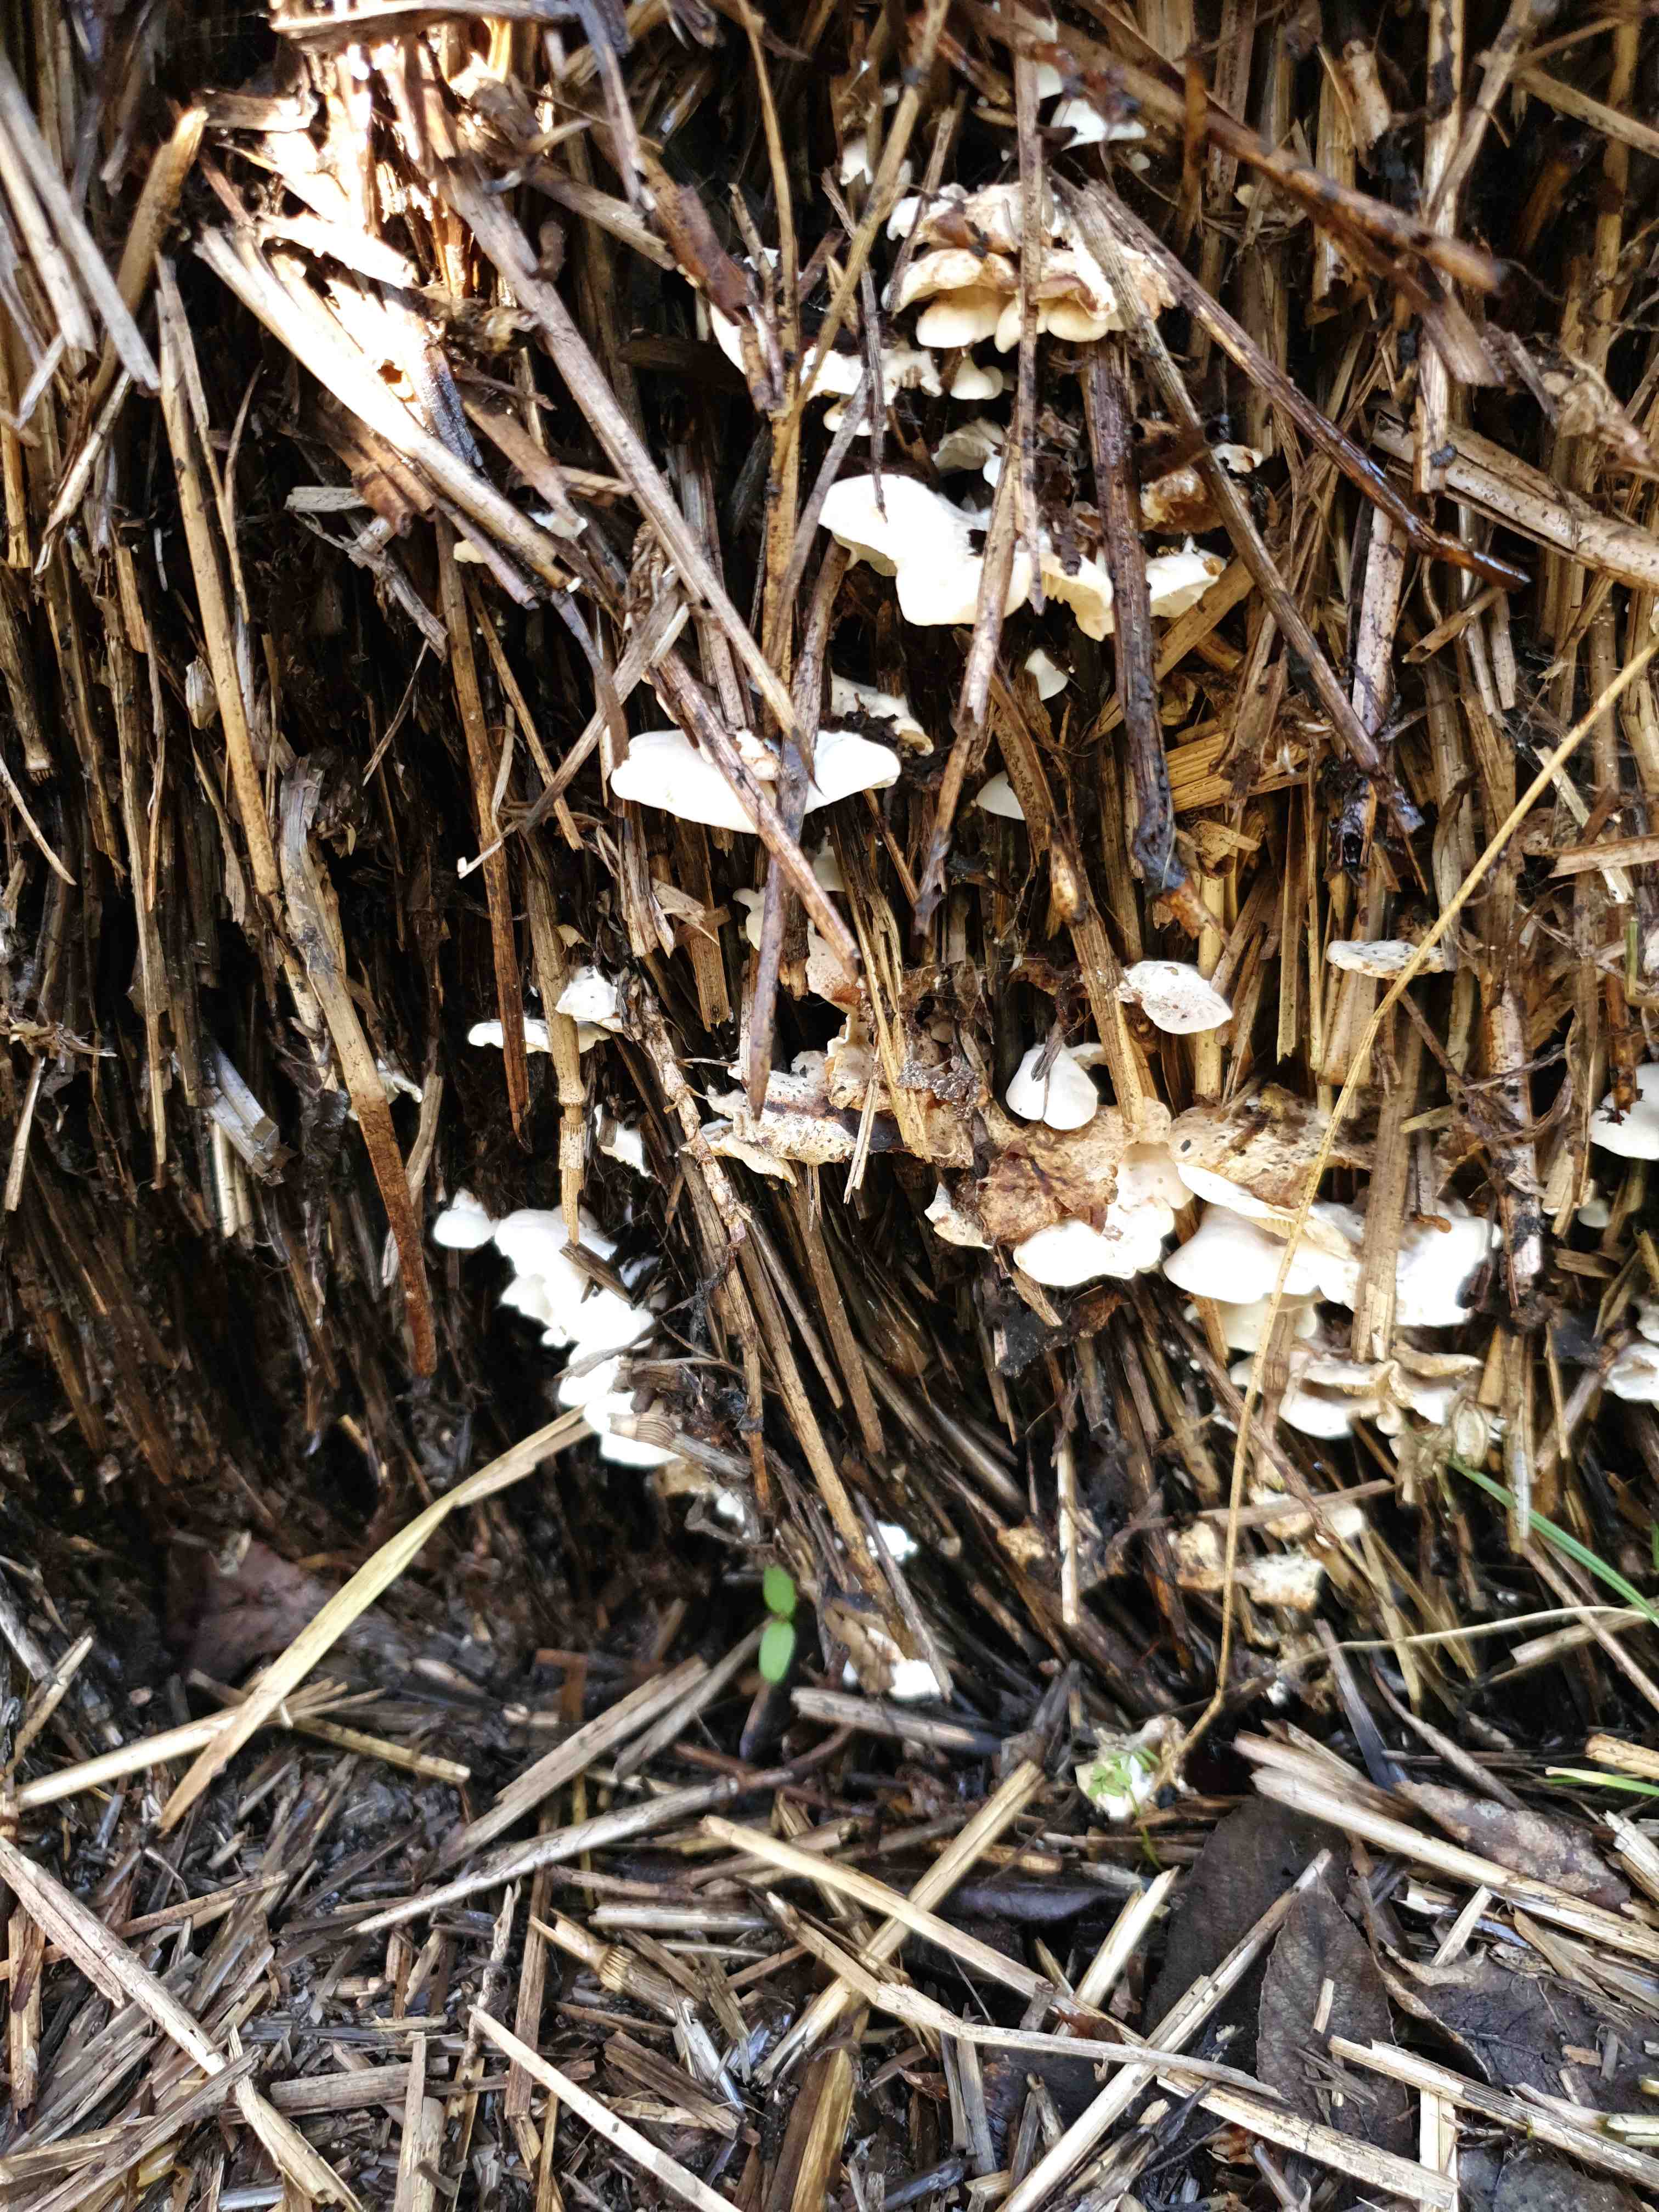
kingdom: Fungi
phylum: Basidiomycota
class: Agaricomycetes
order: Agaricales
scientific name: Agaricales
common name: champignonordenen
